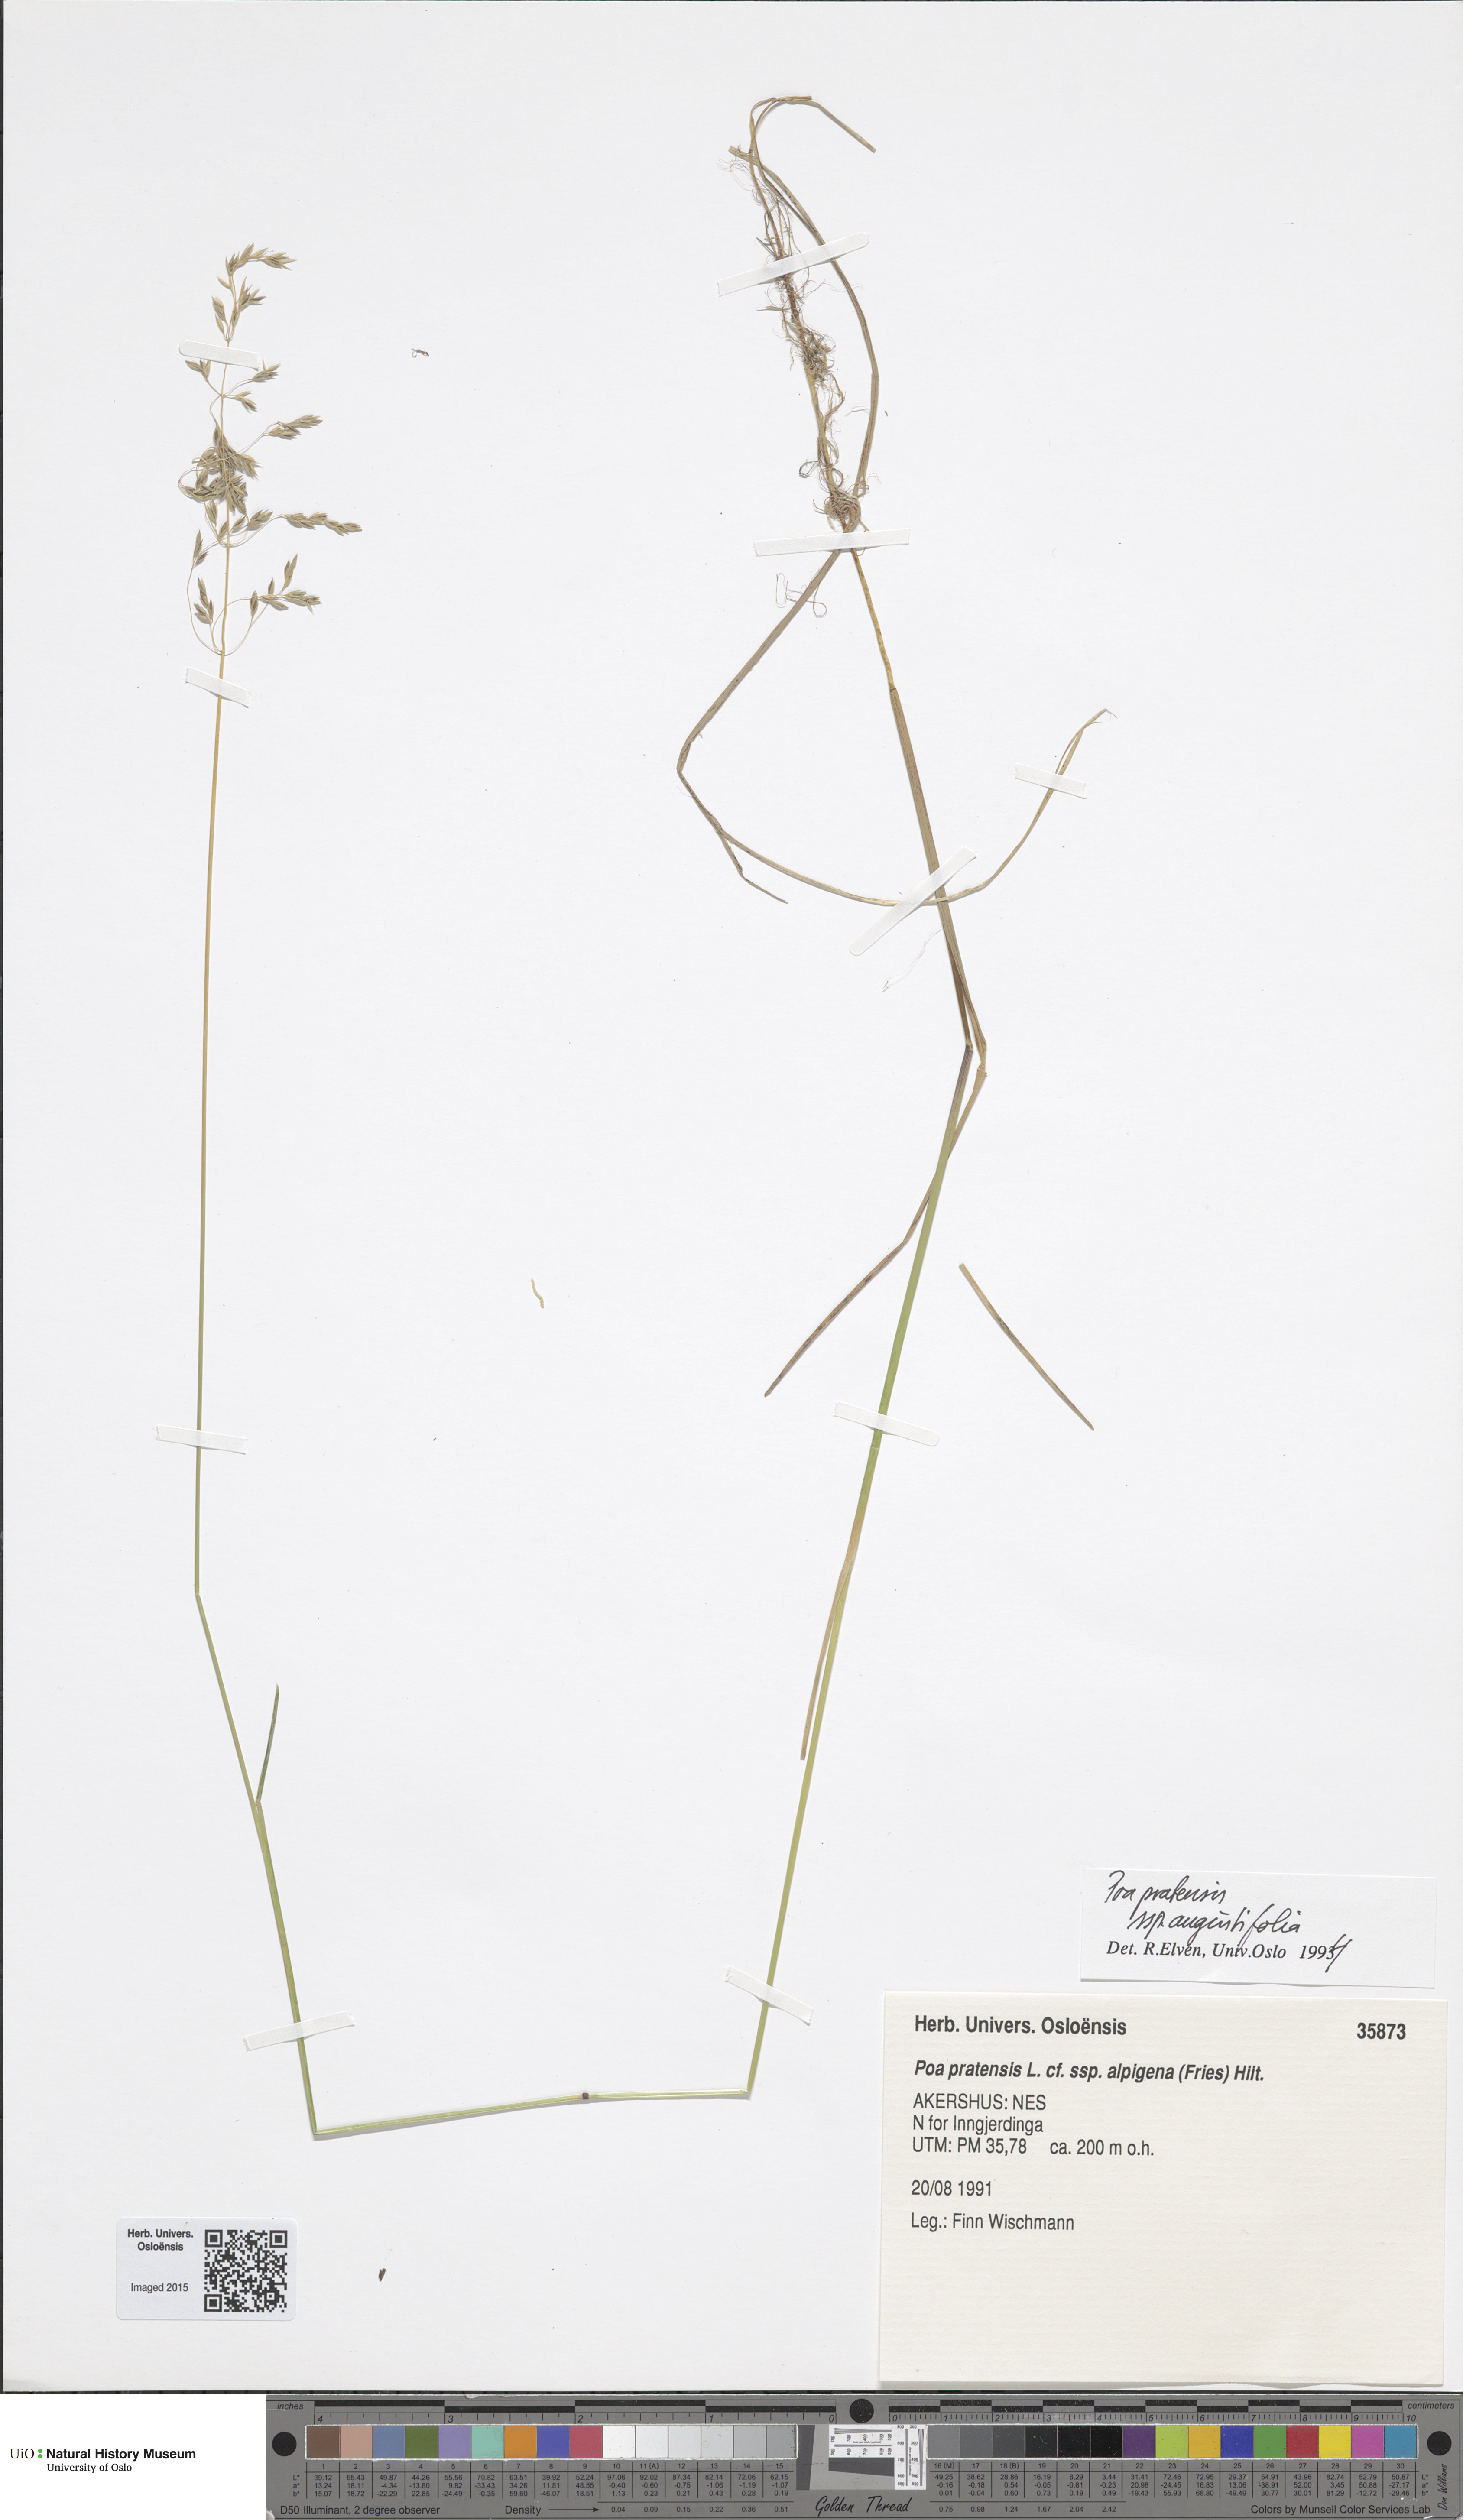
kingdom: Plantae
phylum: Tracheophyta
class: Liliopsida
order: Poales
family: Poaceae
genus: Poa
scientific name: Poa angustifolia
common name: Narrow-leaved meadow-grass
